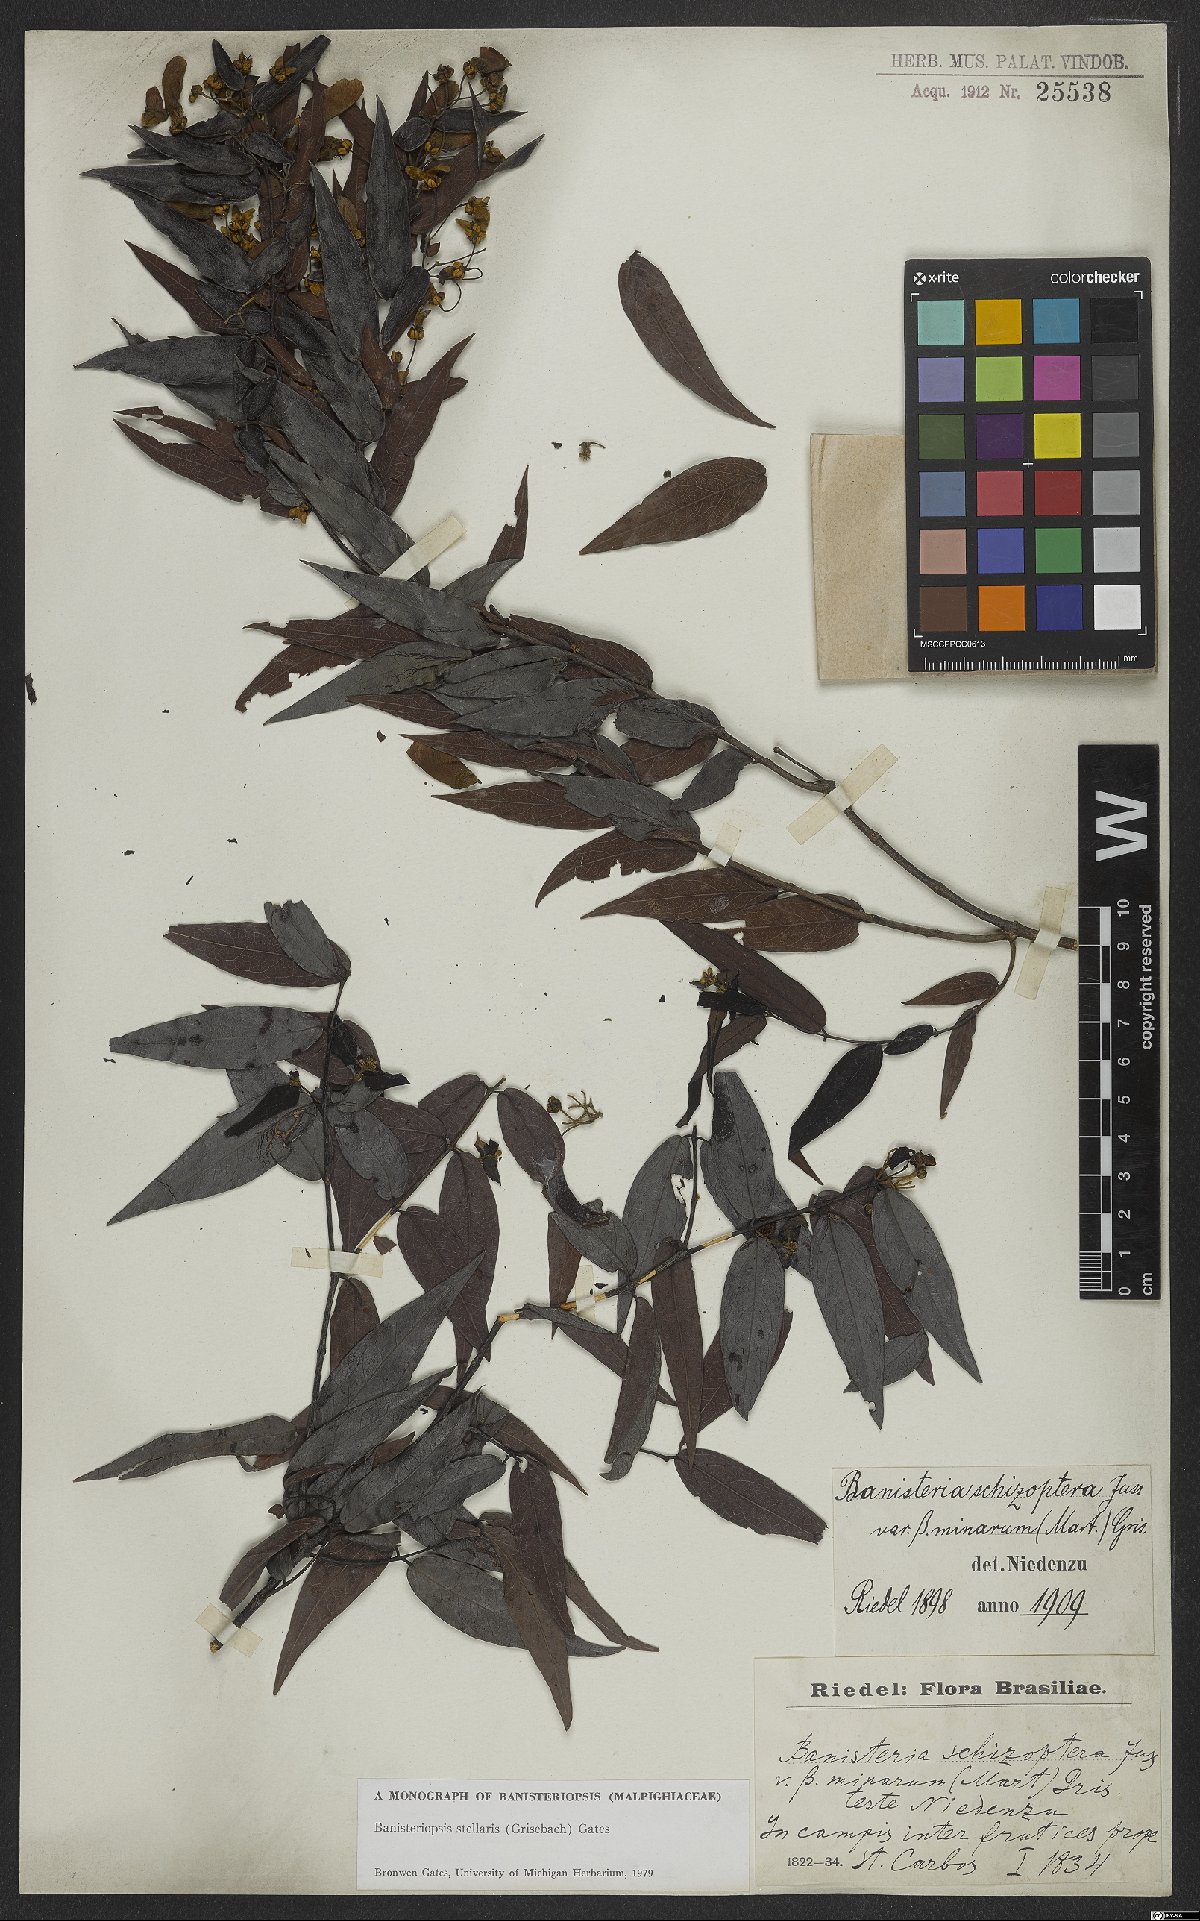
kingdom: Plantae
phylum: Tracheophyta
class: Magnoliopsida
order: Malpighiales
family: Malpighiaceae
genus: Banisteriopsis
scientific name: Banisteriopsis stellaris
